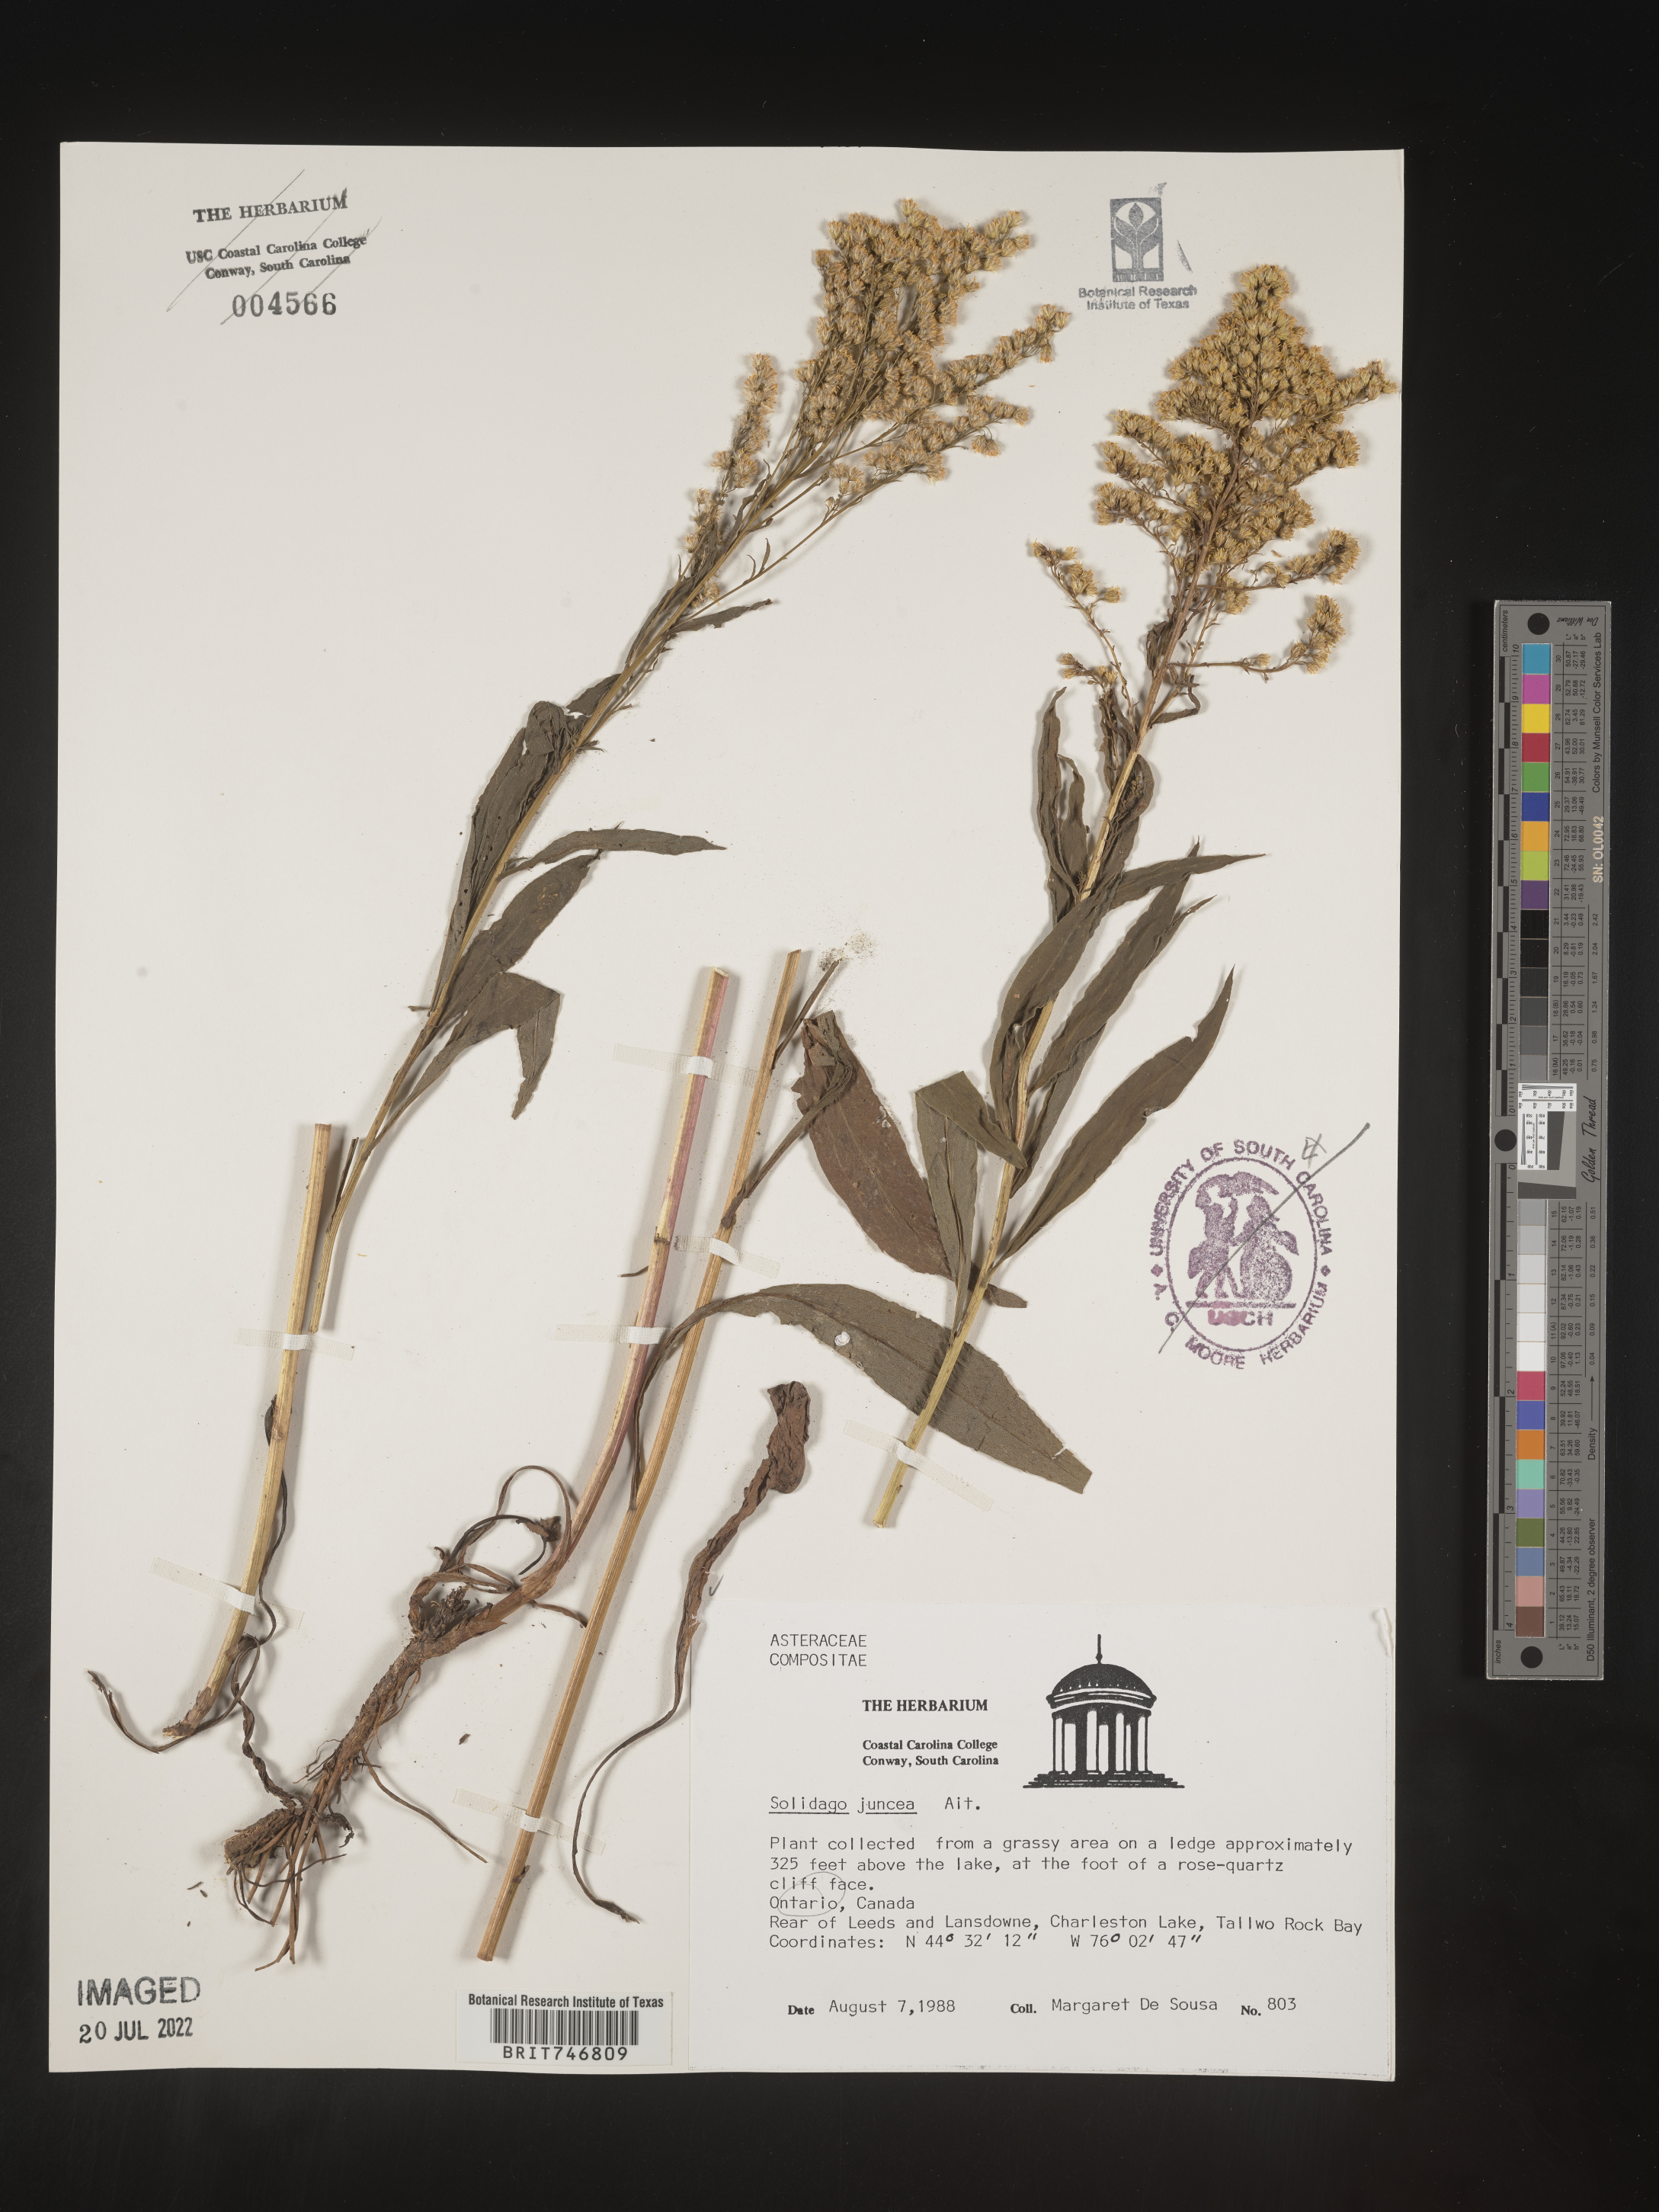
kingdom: Plantae
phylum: Tracheophyta
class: Magnoliopsida
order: Asterales
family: Asteraceae
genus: Solidago
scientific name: Solidago juncea
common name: Early goldenrod
